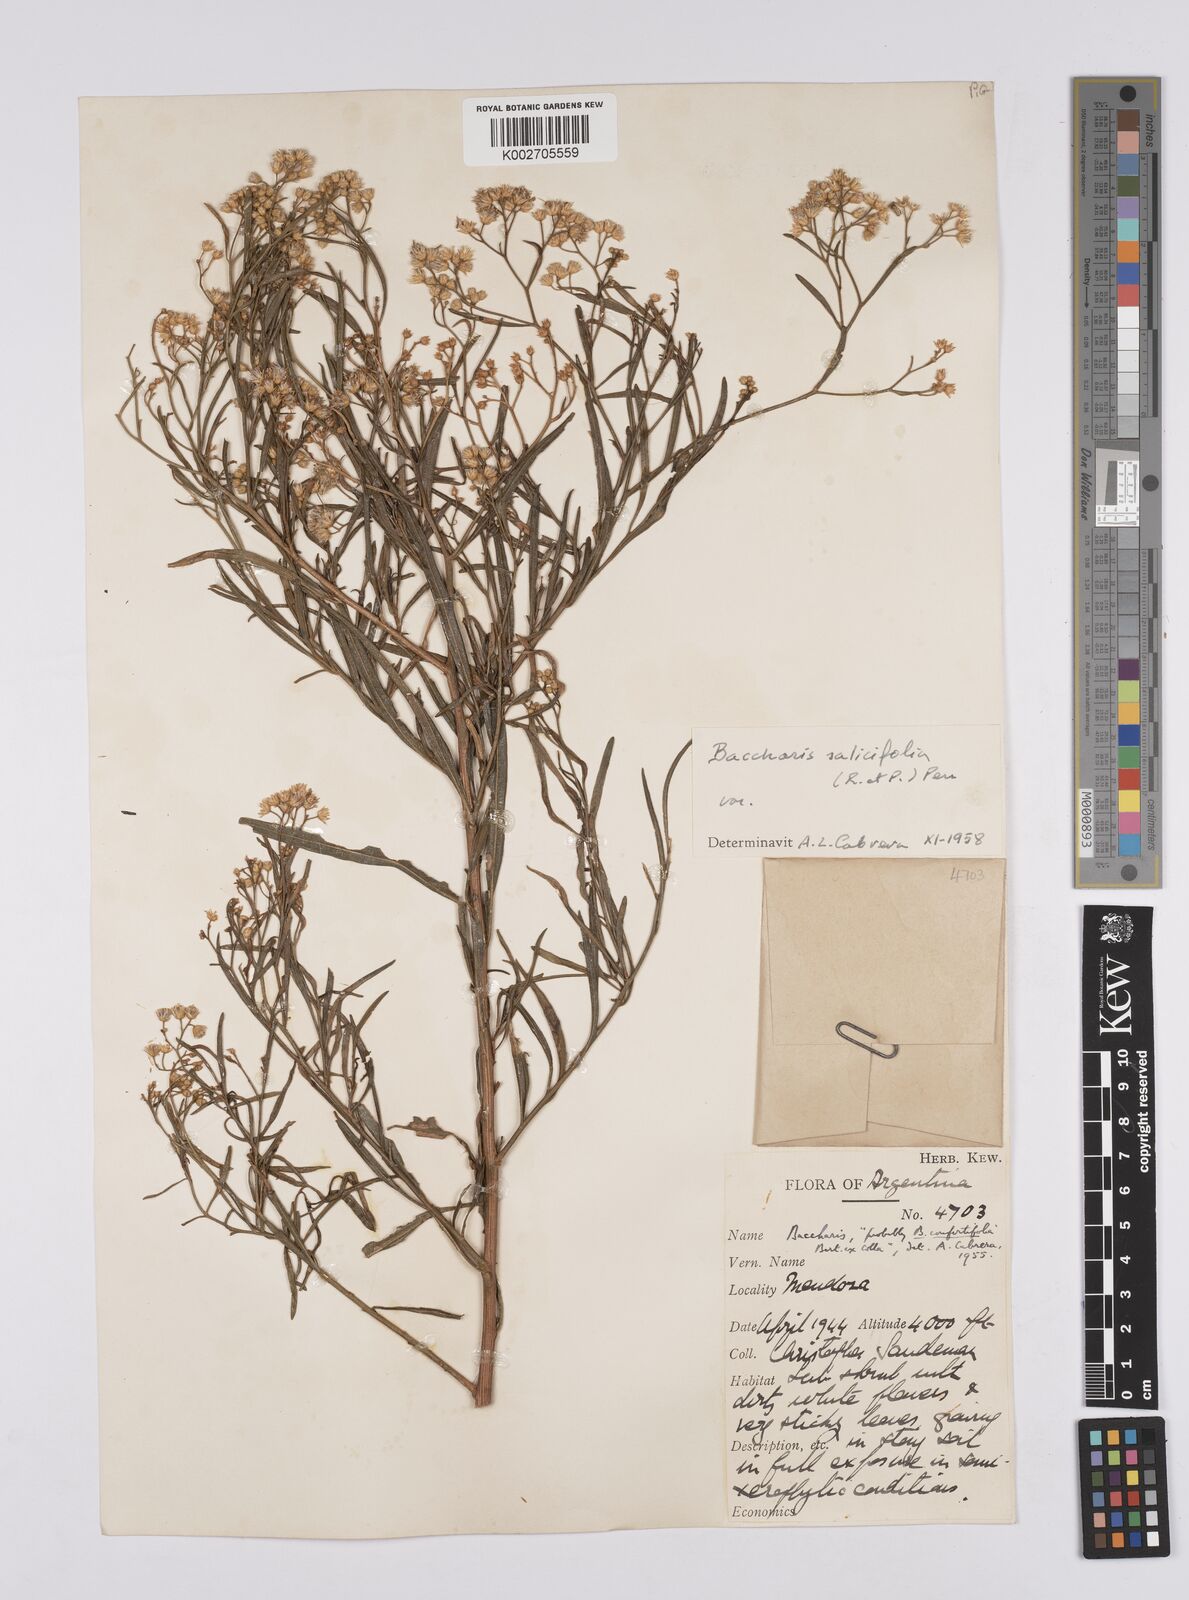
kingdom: Plantae
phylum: Tracheophyta
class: Magnoliopsida
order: Asterales
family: Asteraceae
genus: Baccharis
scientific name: Baccharis salicifolia
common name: Sticky baccharis
